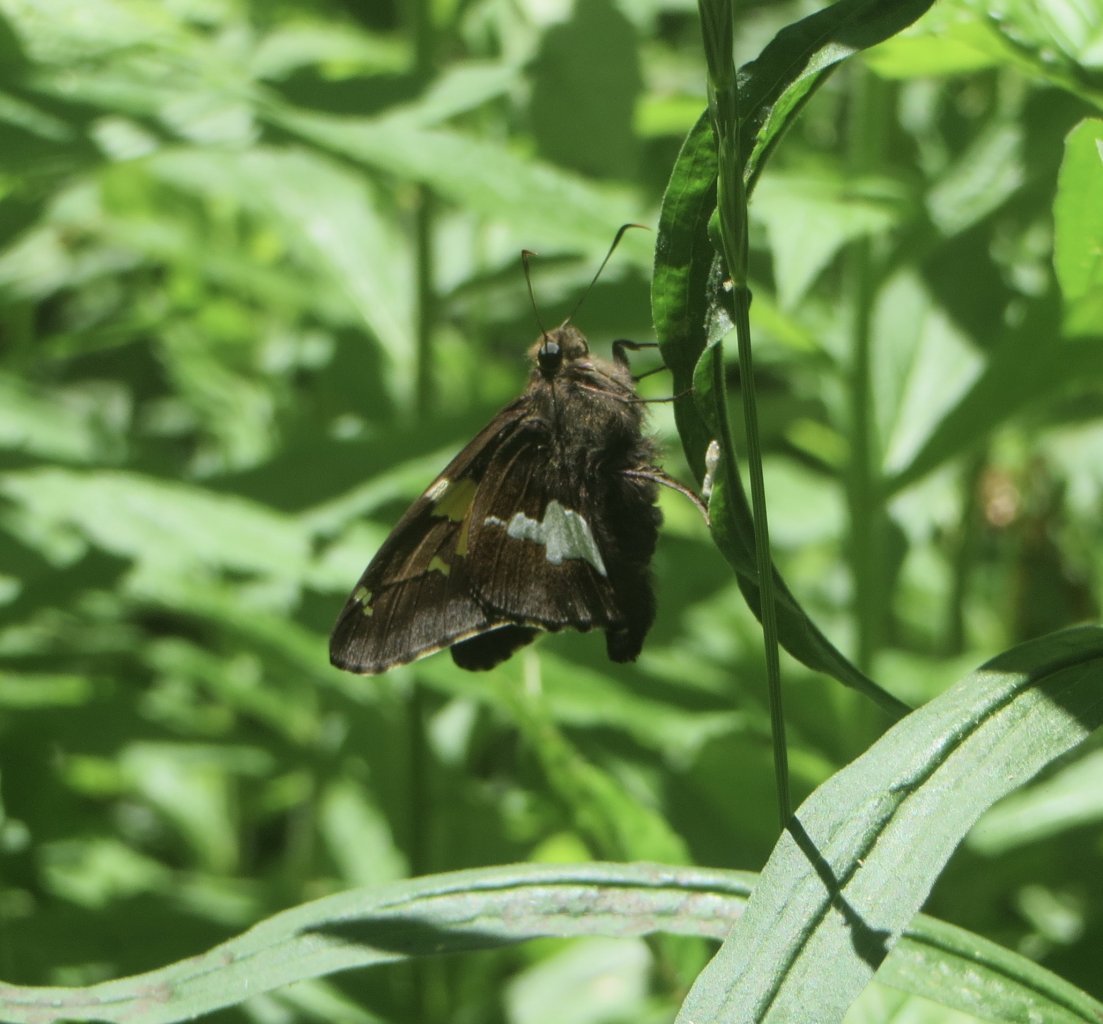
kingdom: Animalia
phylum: Arthropoda
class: Insecta
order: Lepidoptera
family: Hesperiidae
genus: Epargyreus
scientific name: Epargyreus clarus
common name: Silver-spotted Skipper
